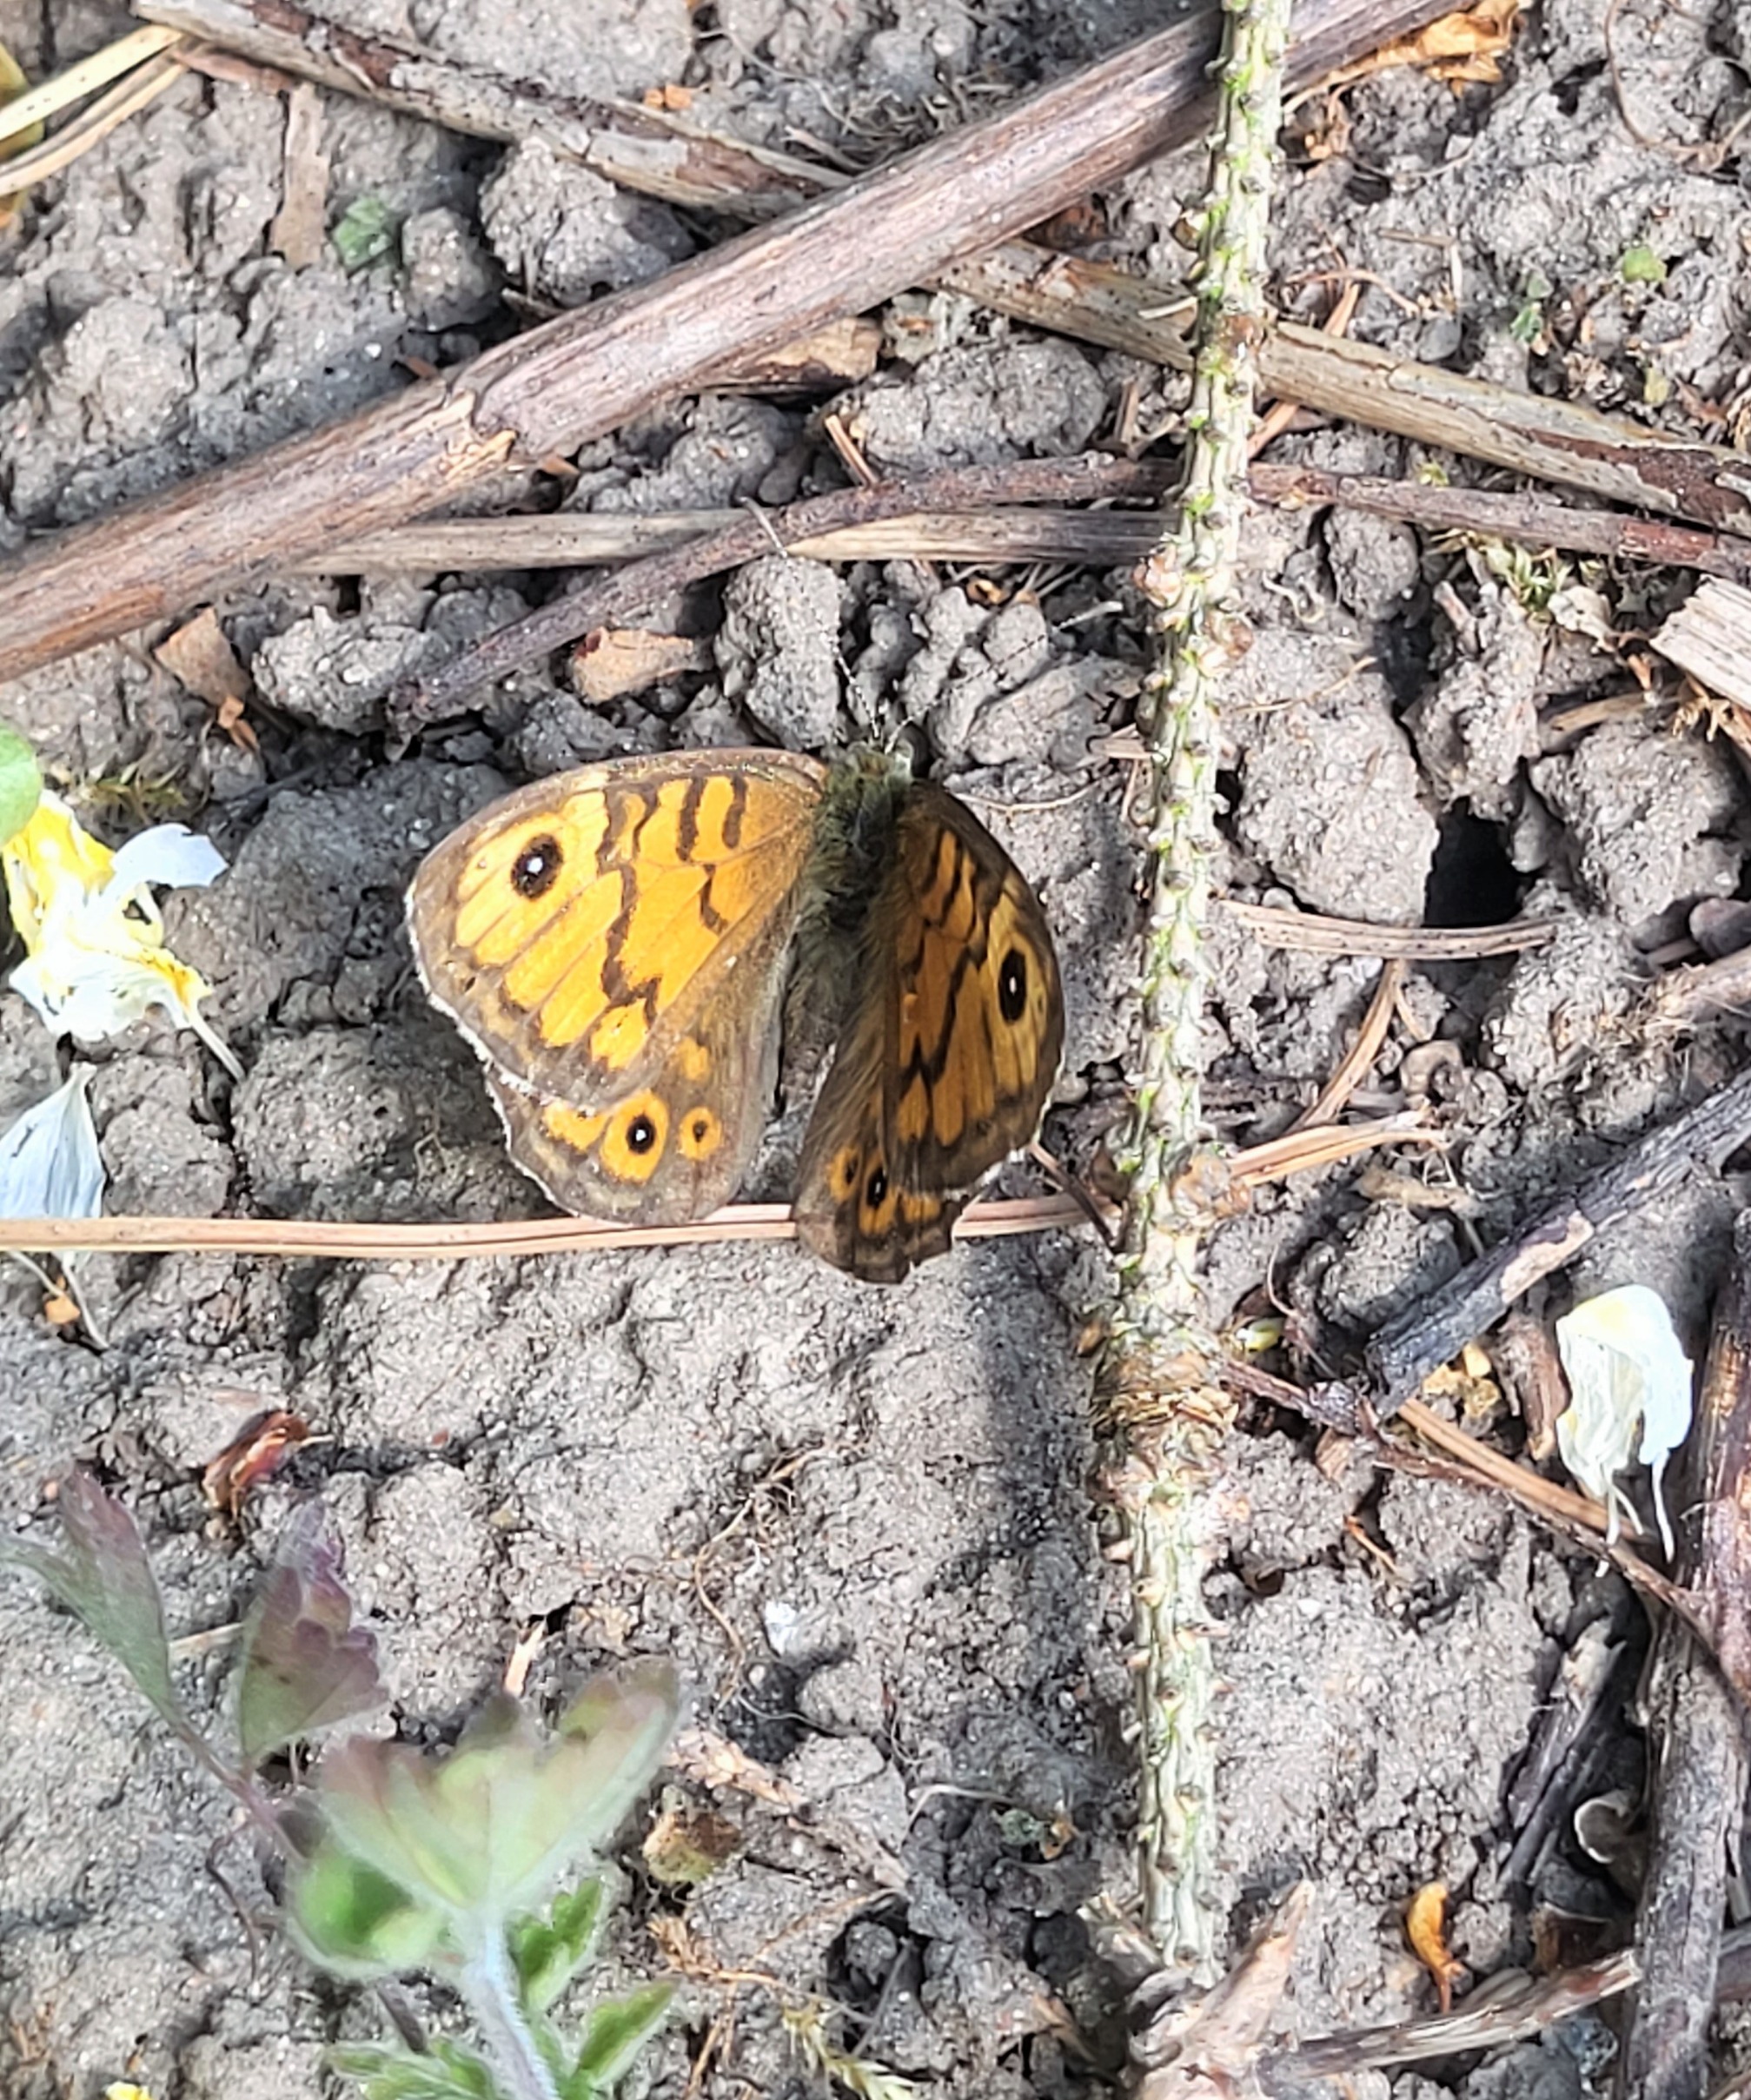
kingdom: Animalia
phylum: Arthropoda
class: Insecta
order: Lepidoptera
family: Nymphalidae
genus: Pararge
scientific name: Pararge Lasiommata megera
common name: Vejrandøje
